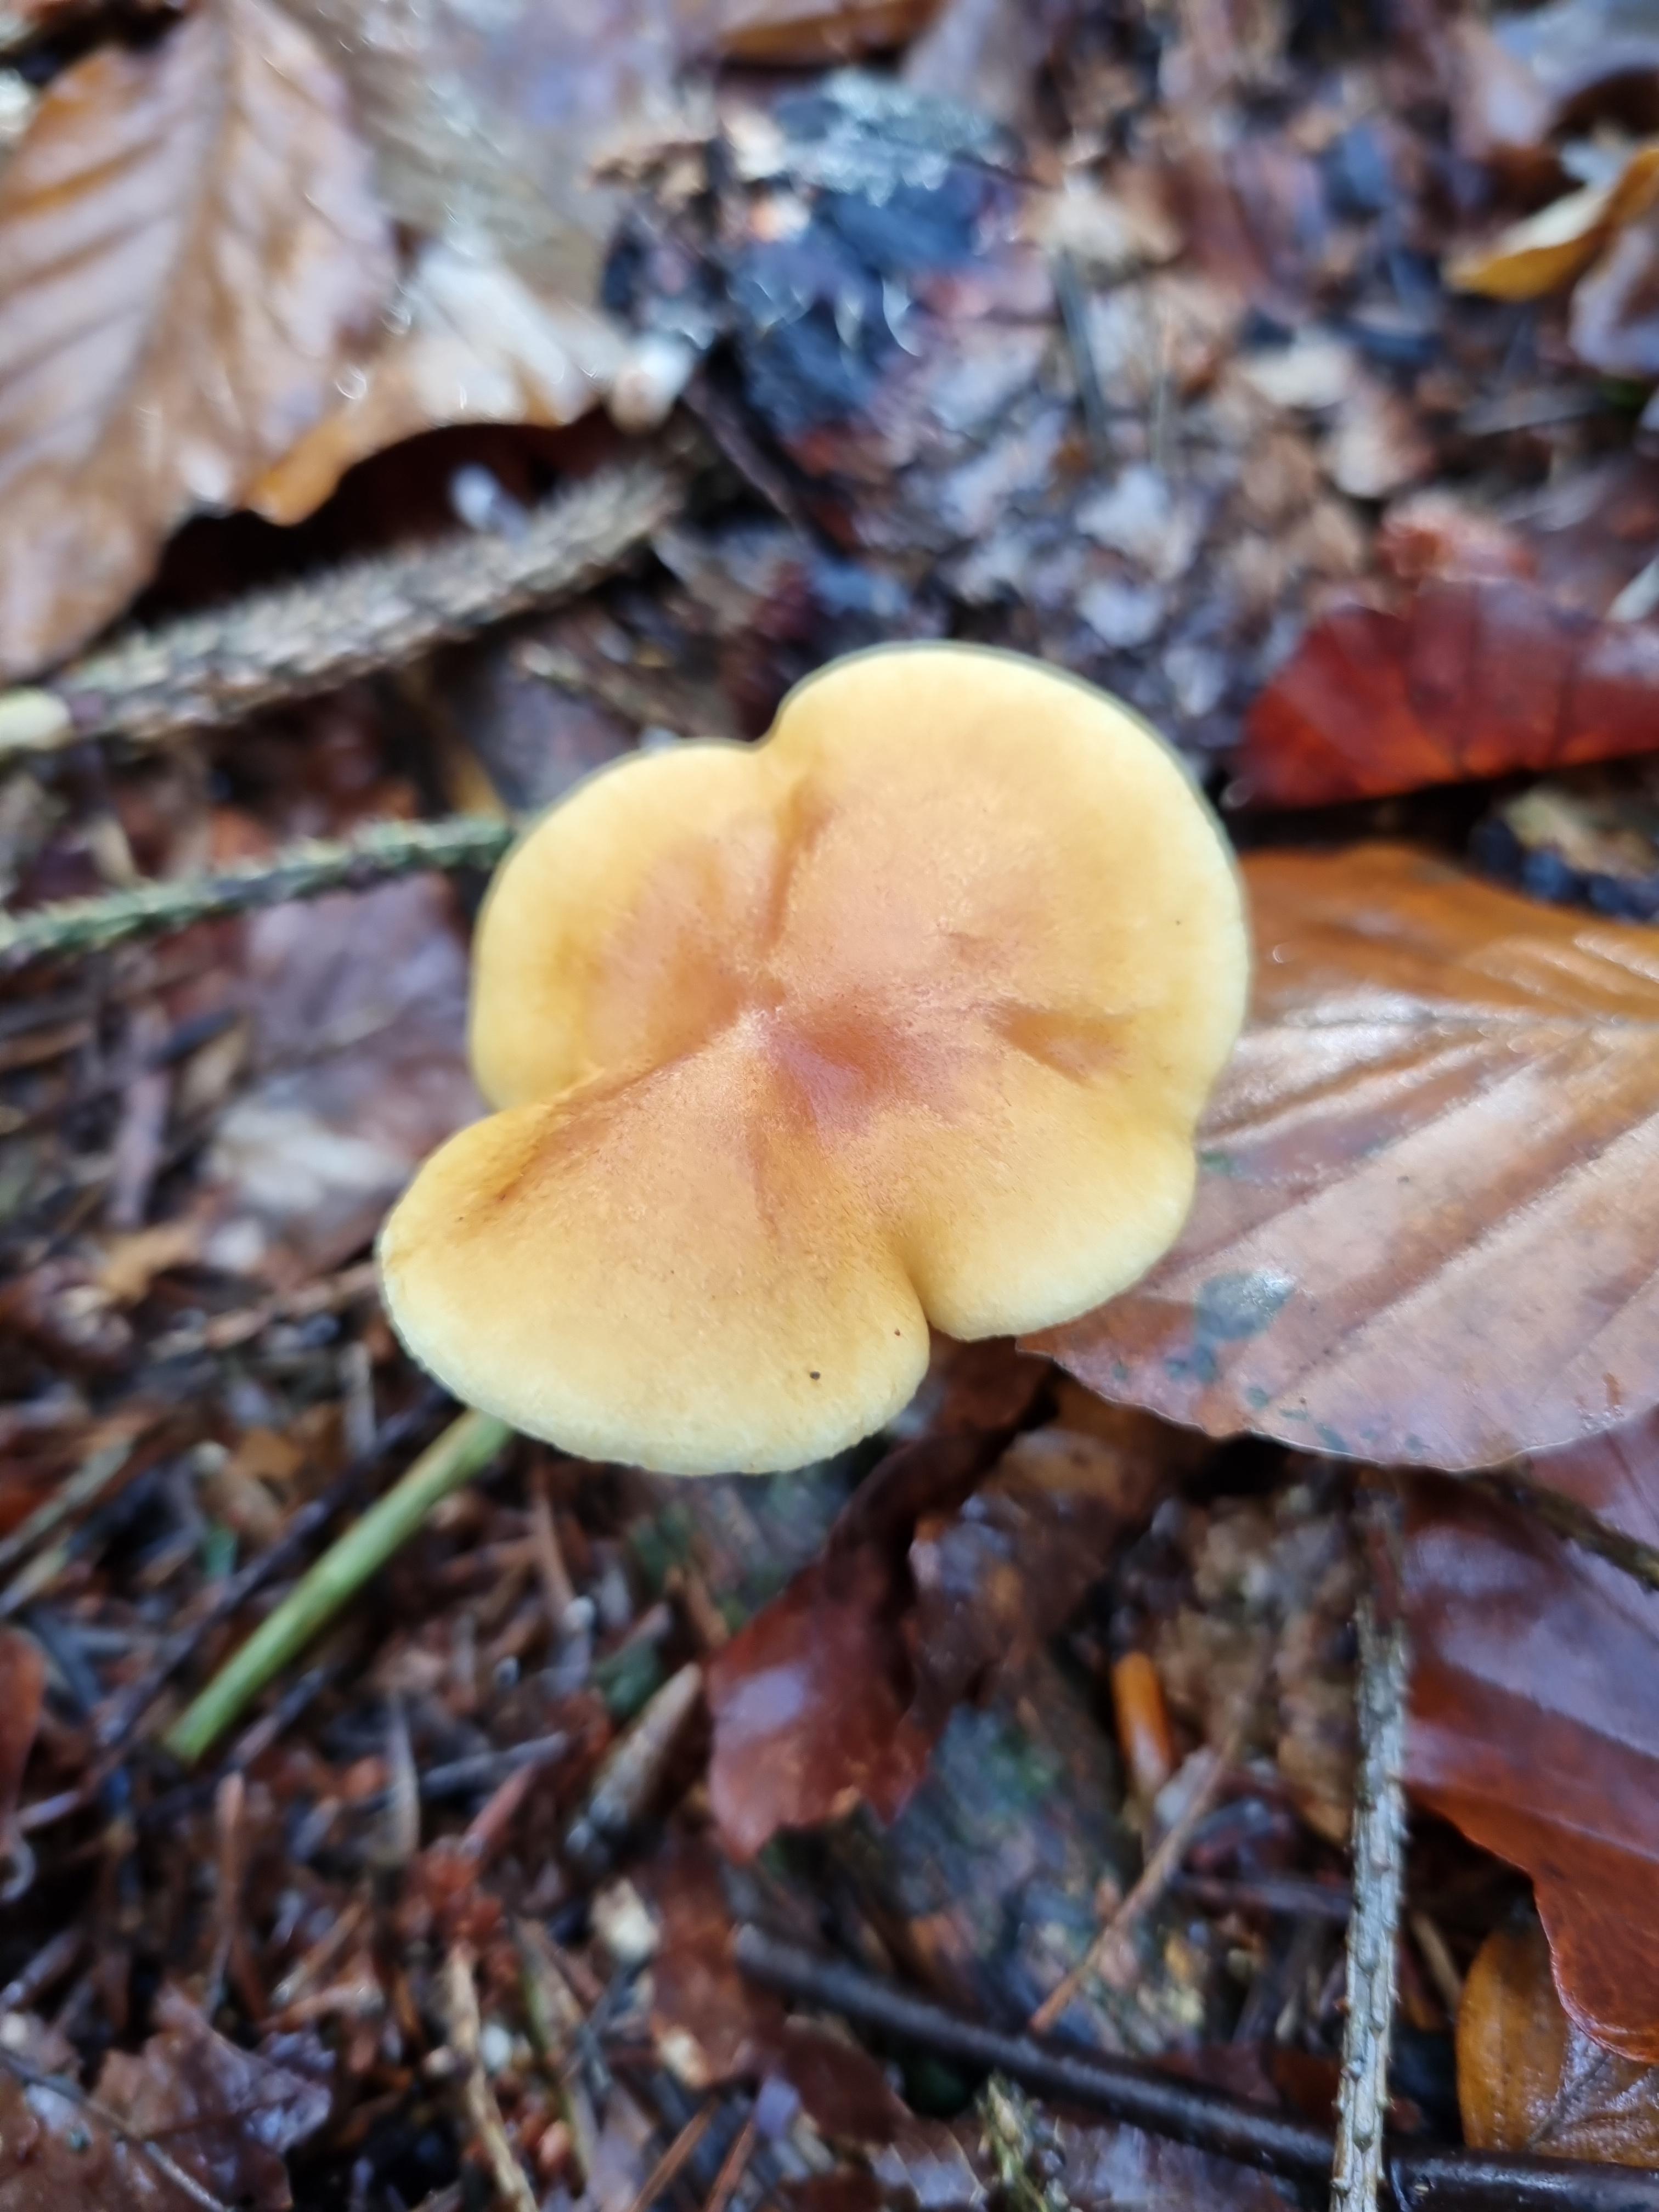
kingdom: Fungi
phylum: Basidiomycota
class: Agaricomycetes
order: Agaricales
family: Hymenogastraceae
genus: Gymnopilus
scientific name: Gymnopilus penetrans
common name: plettet flammehat
